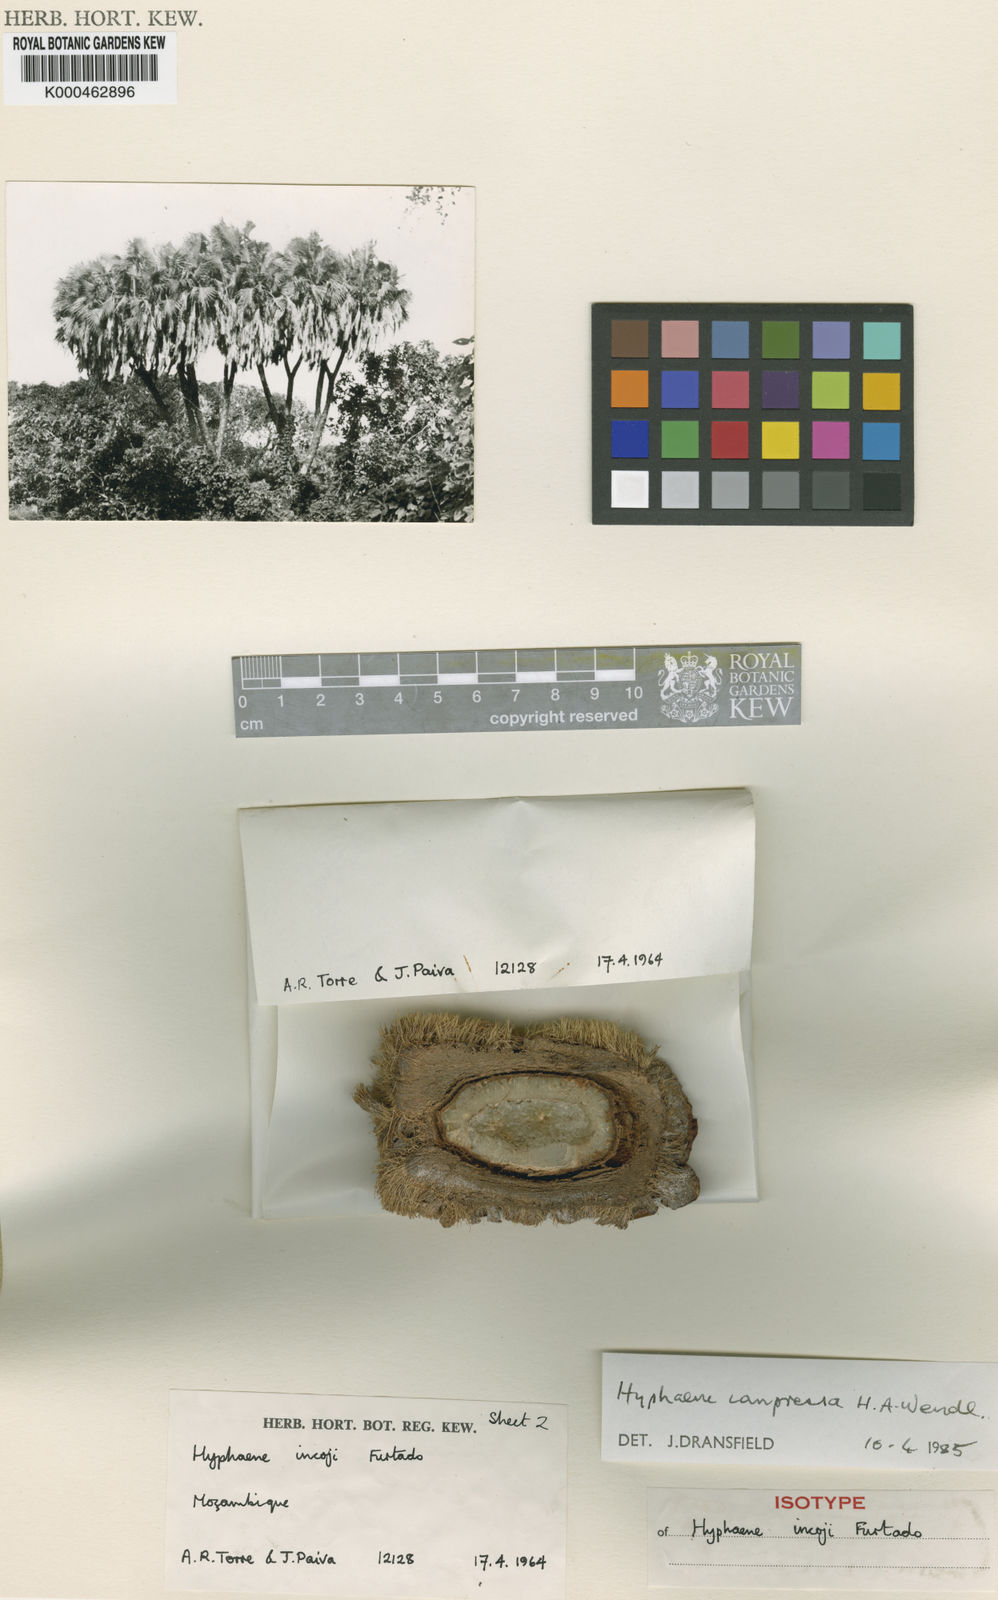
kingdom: Plantae
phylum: Tracheophyta
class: Liliopsida
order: Arecales
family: Arecaceae
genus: Hyphaene
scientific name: Hyphaene compressa
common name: Doum palm
